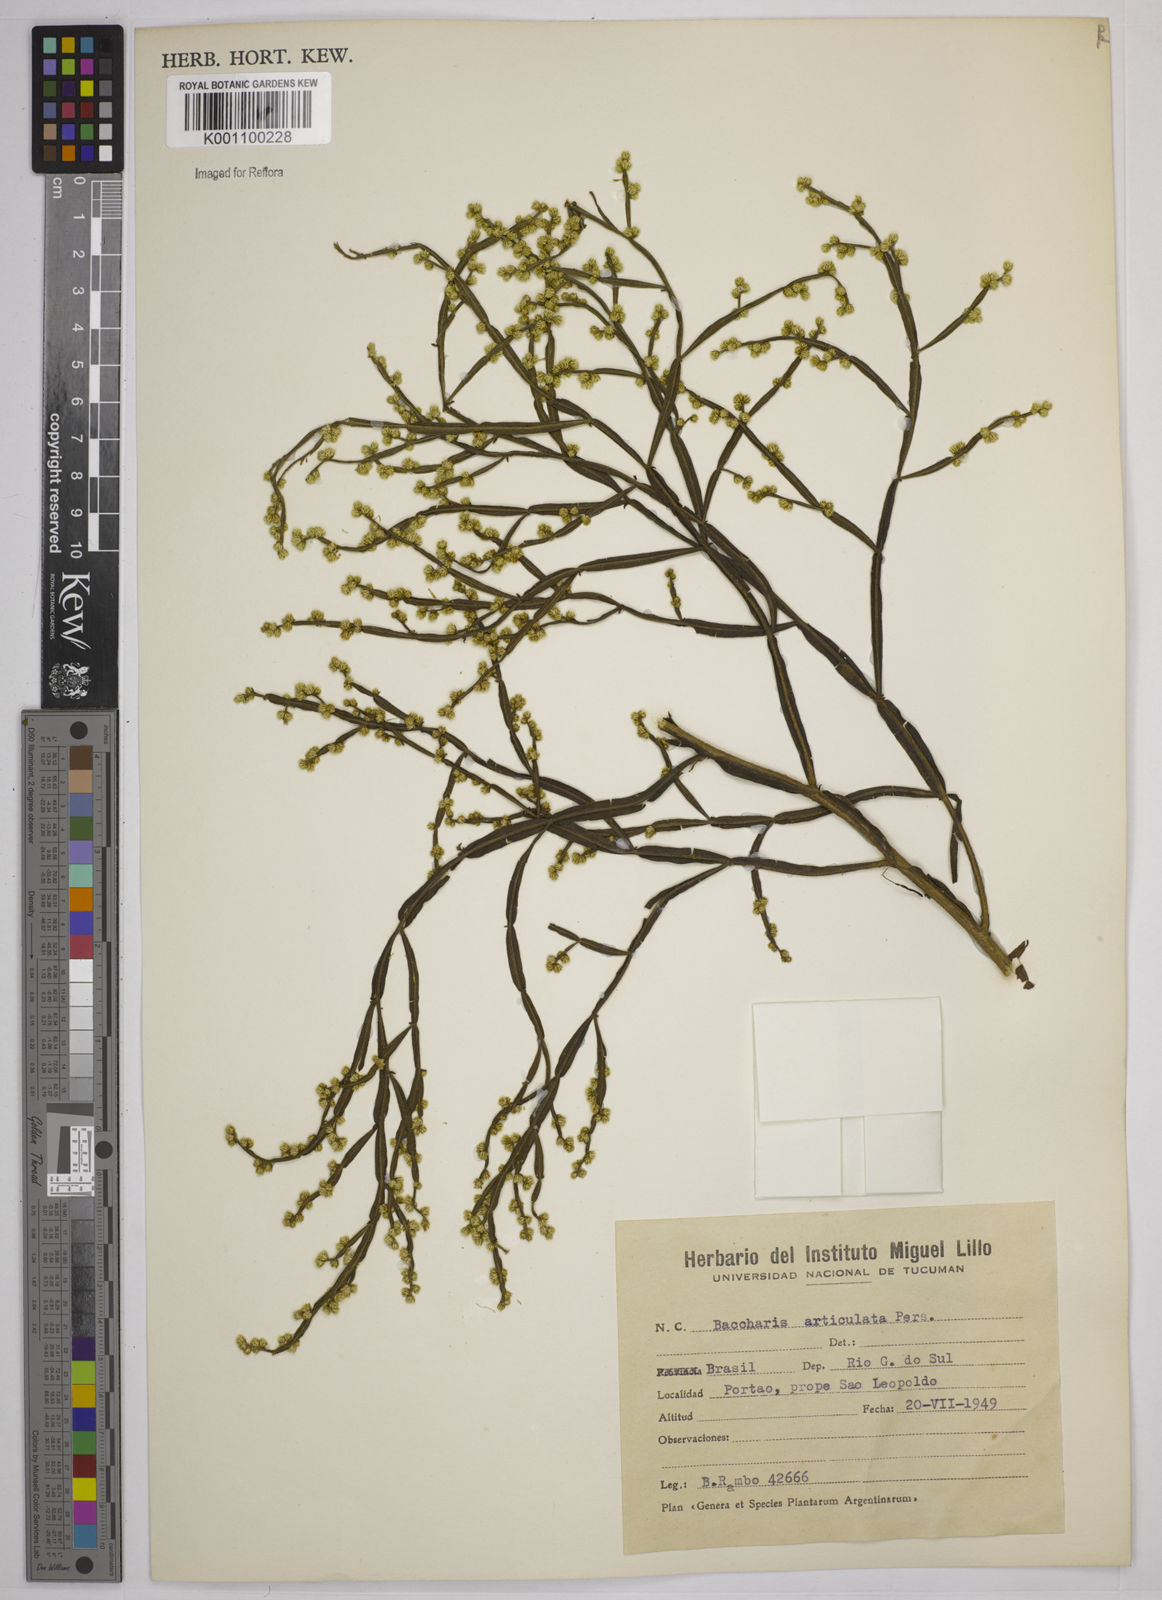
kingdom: Plantae
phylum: Tracheophyta
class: Magnoliopsida
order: Asterales
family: Asteraceae
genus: Baccharis
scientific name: Baccharis
